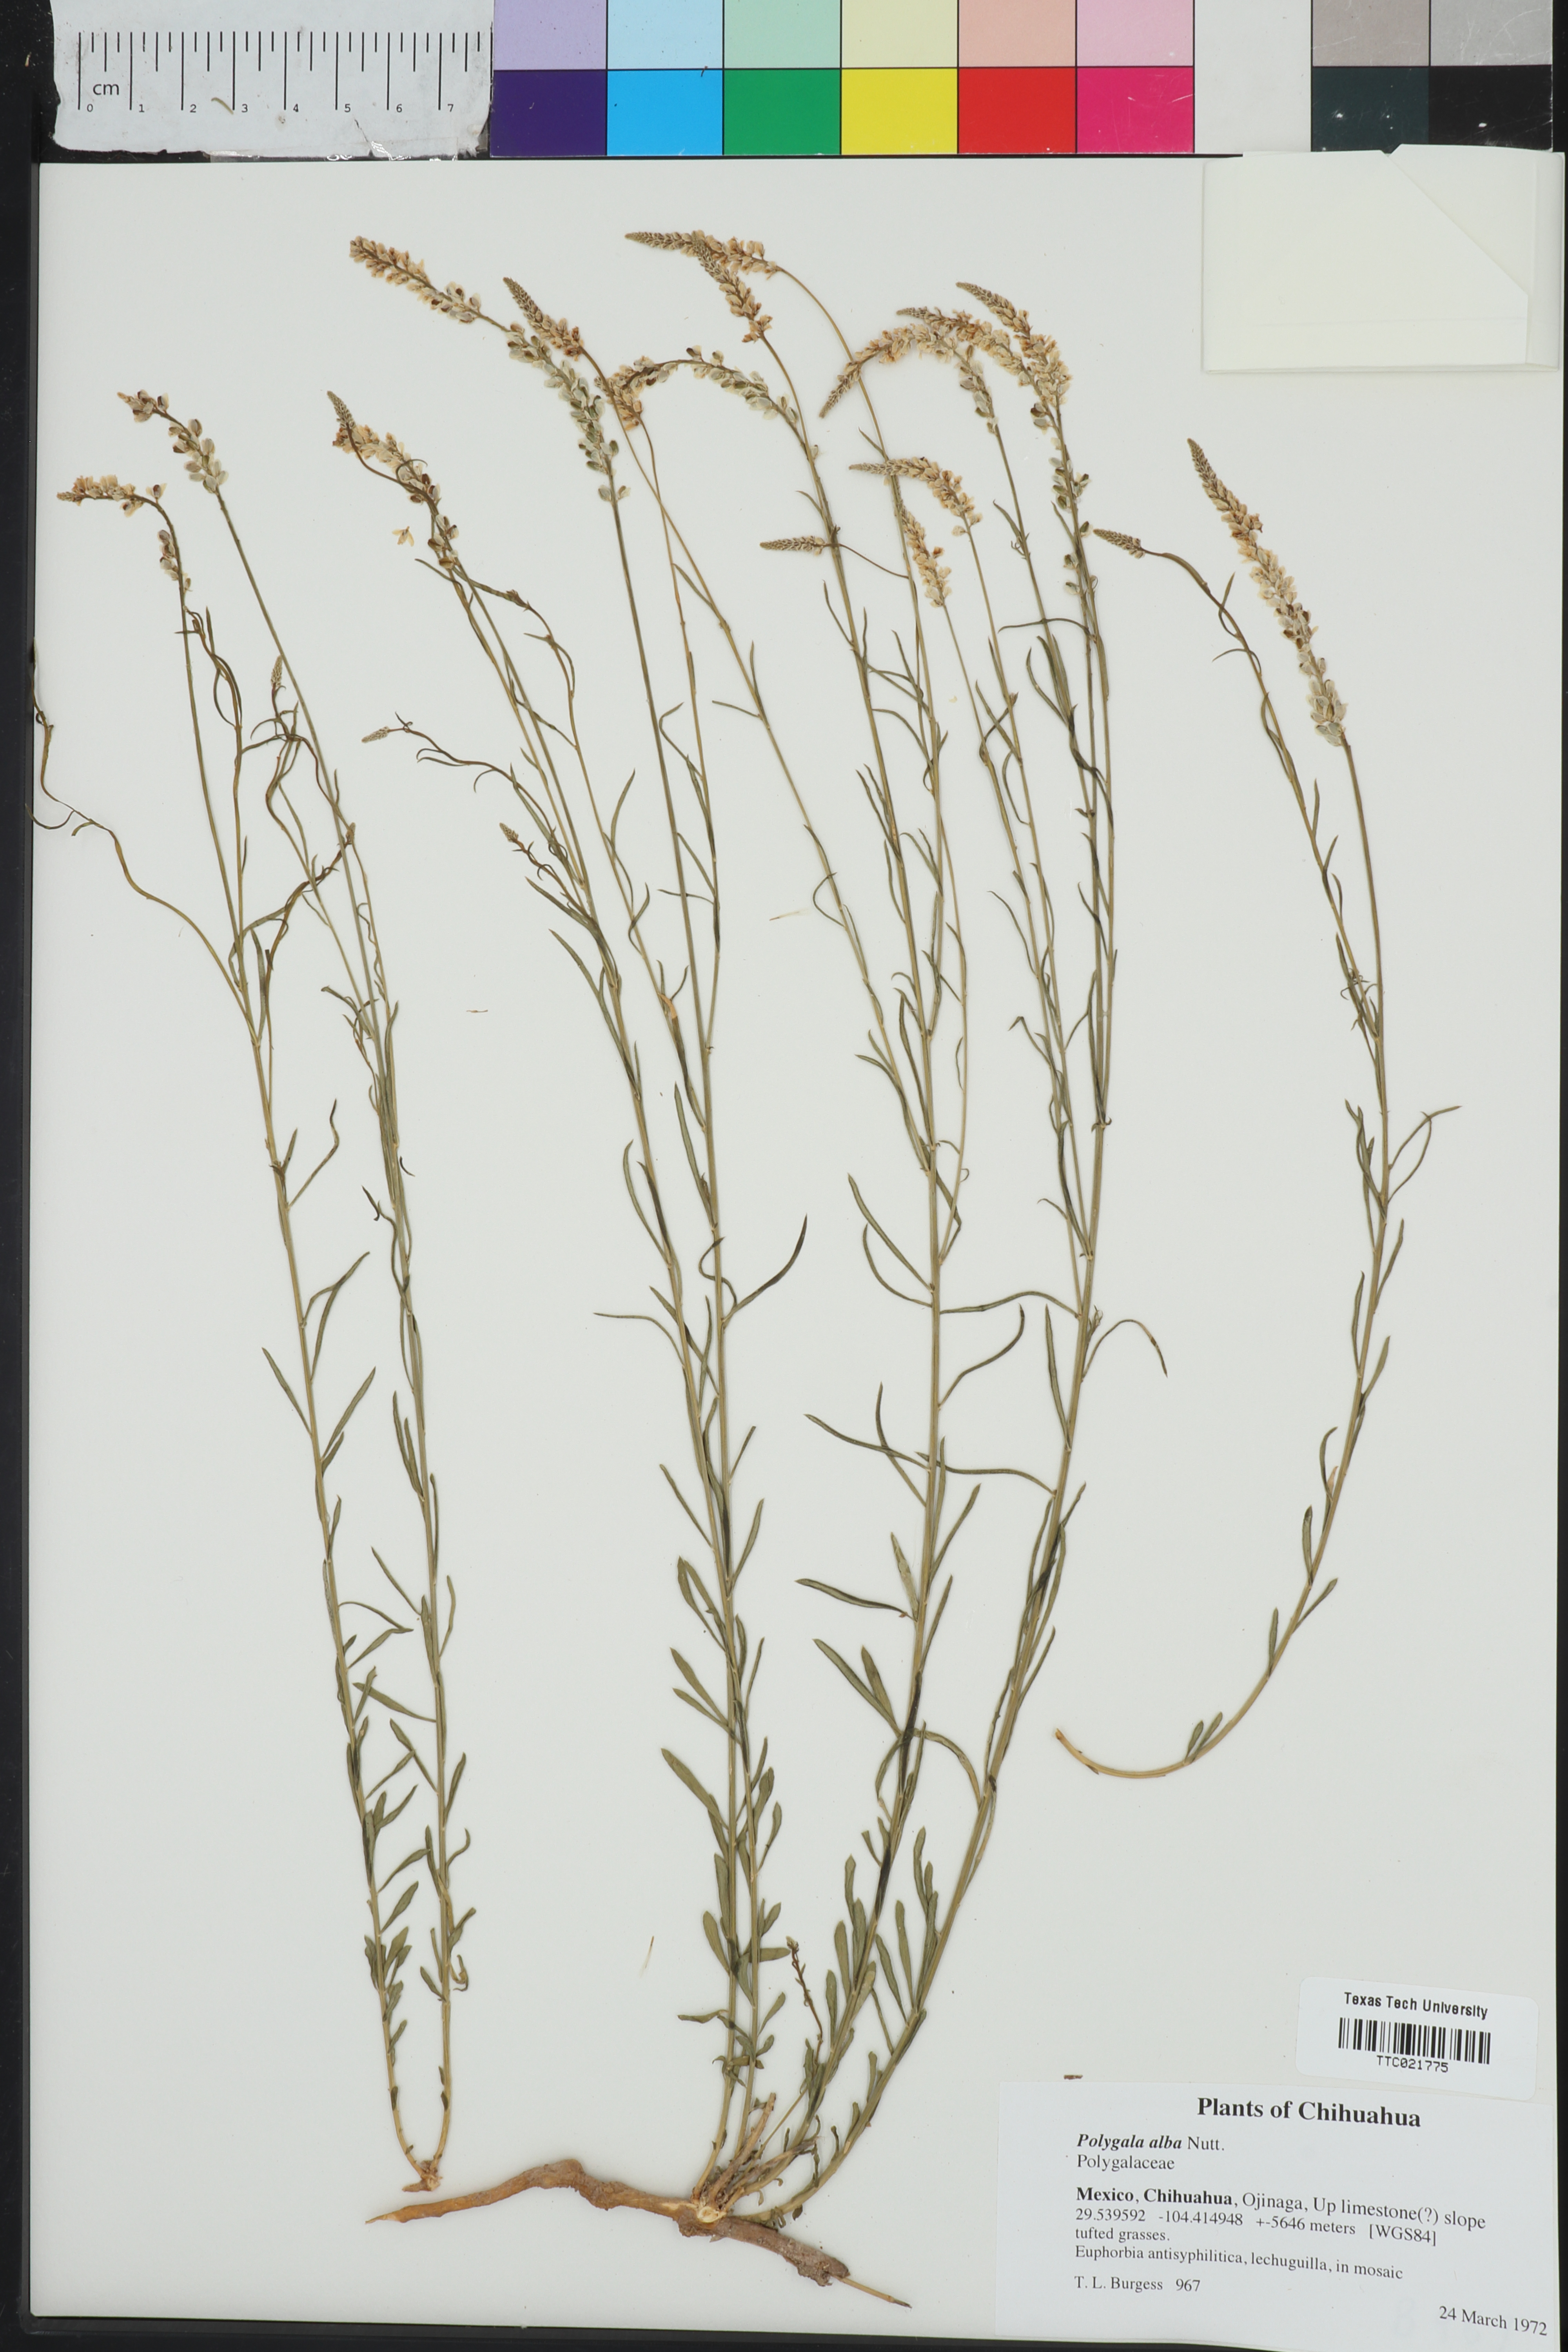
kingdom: Plantae
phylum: Tracheophyta
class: Magnoliopsida
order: Fabales
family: Polygalaceae
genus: Polygala
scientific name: Polygala alba
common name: White milkwort
